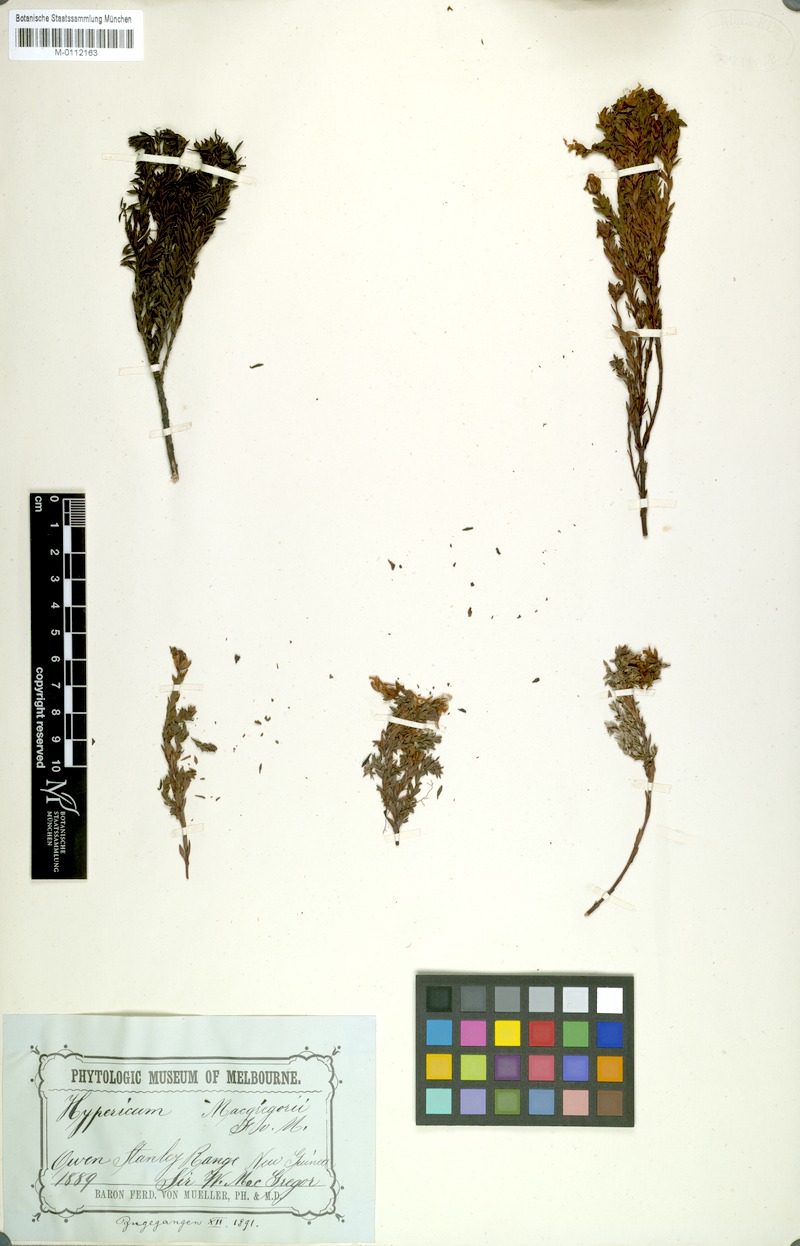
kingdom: Plantae
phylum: Tracheophyta
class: Magnoliopsida
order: Malpighiales
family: Hypericaceae
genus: Hypericum
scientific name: Hypericum macgregorii
